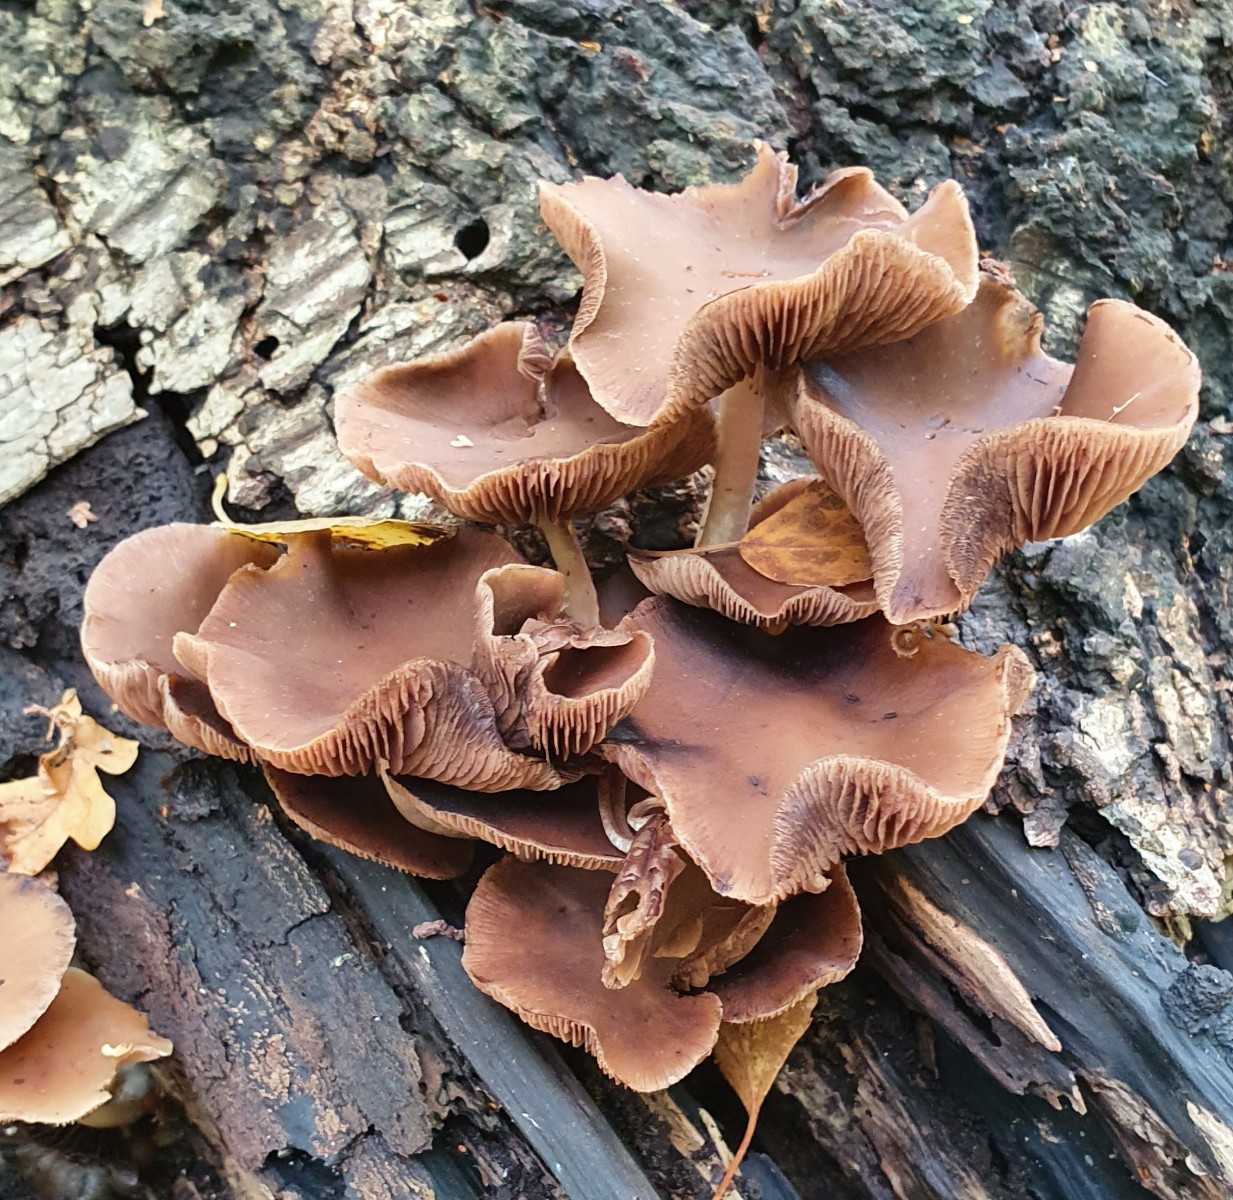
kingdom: Fungi
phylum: Basidiomycota
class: Agaricomycetes
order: Agaricales
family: Psathyrellaceae
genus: Psathyrella
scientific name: Psathyrella piluliformis
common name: lysstokket mørkhat
